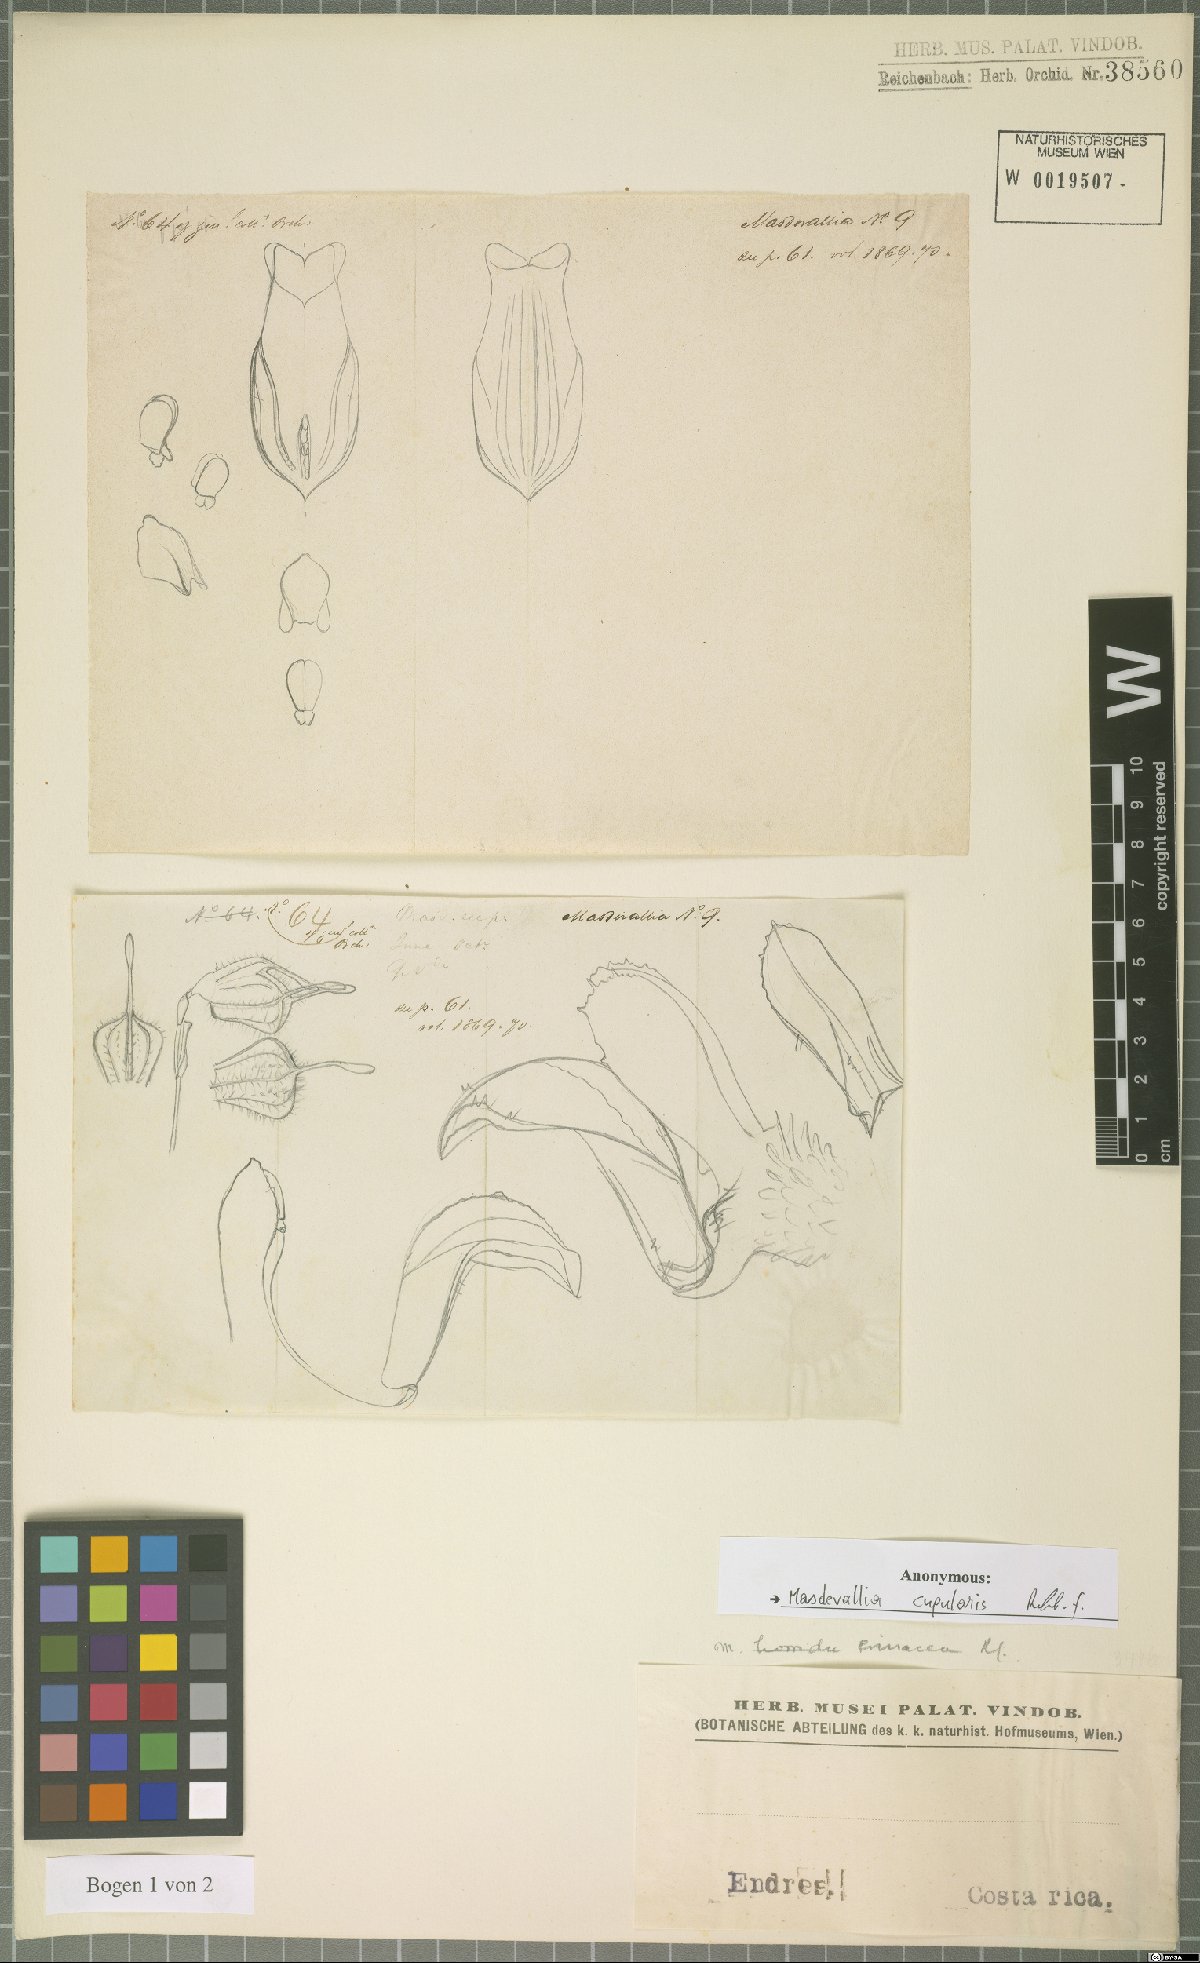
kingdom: Plantae
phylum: Tracheophyta
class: Liliopsida
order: Asparagales
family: Orchidaceae
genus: Diodonopsis
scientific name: Diodonopsis erinacea
